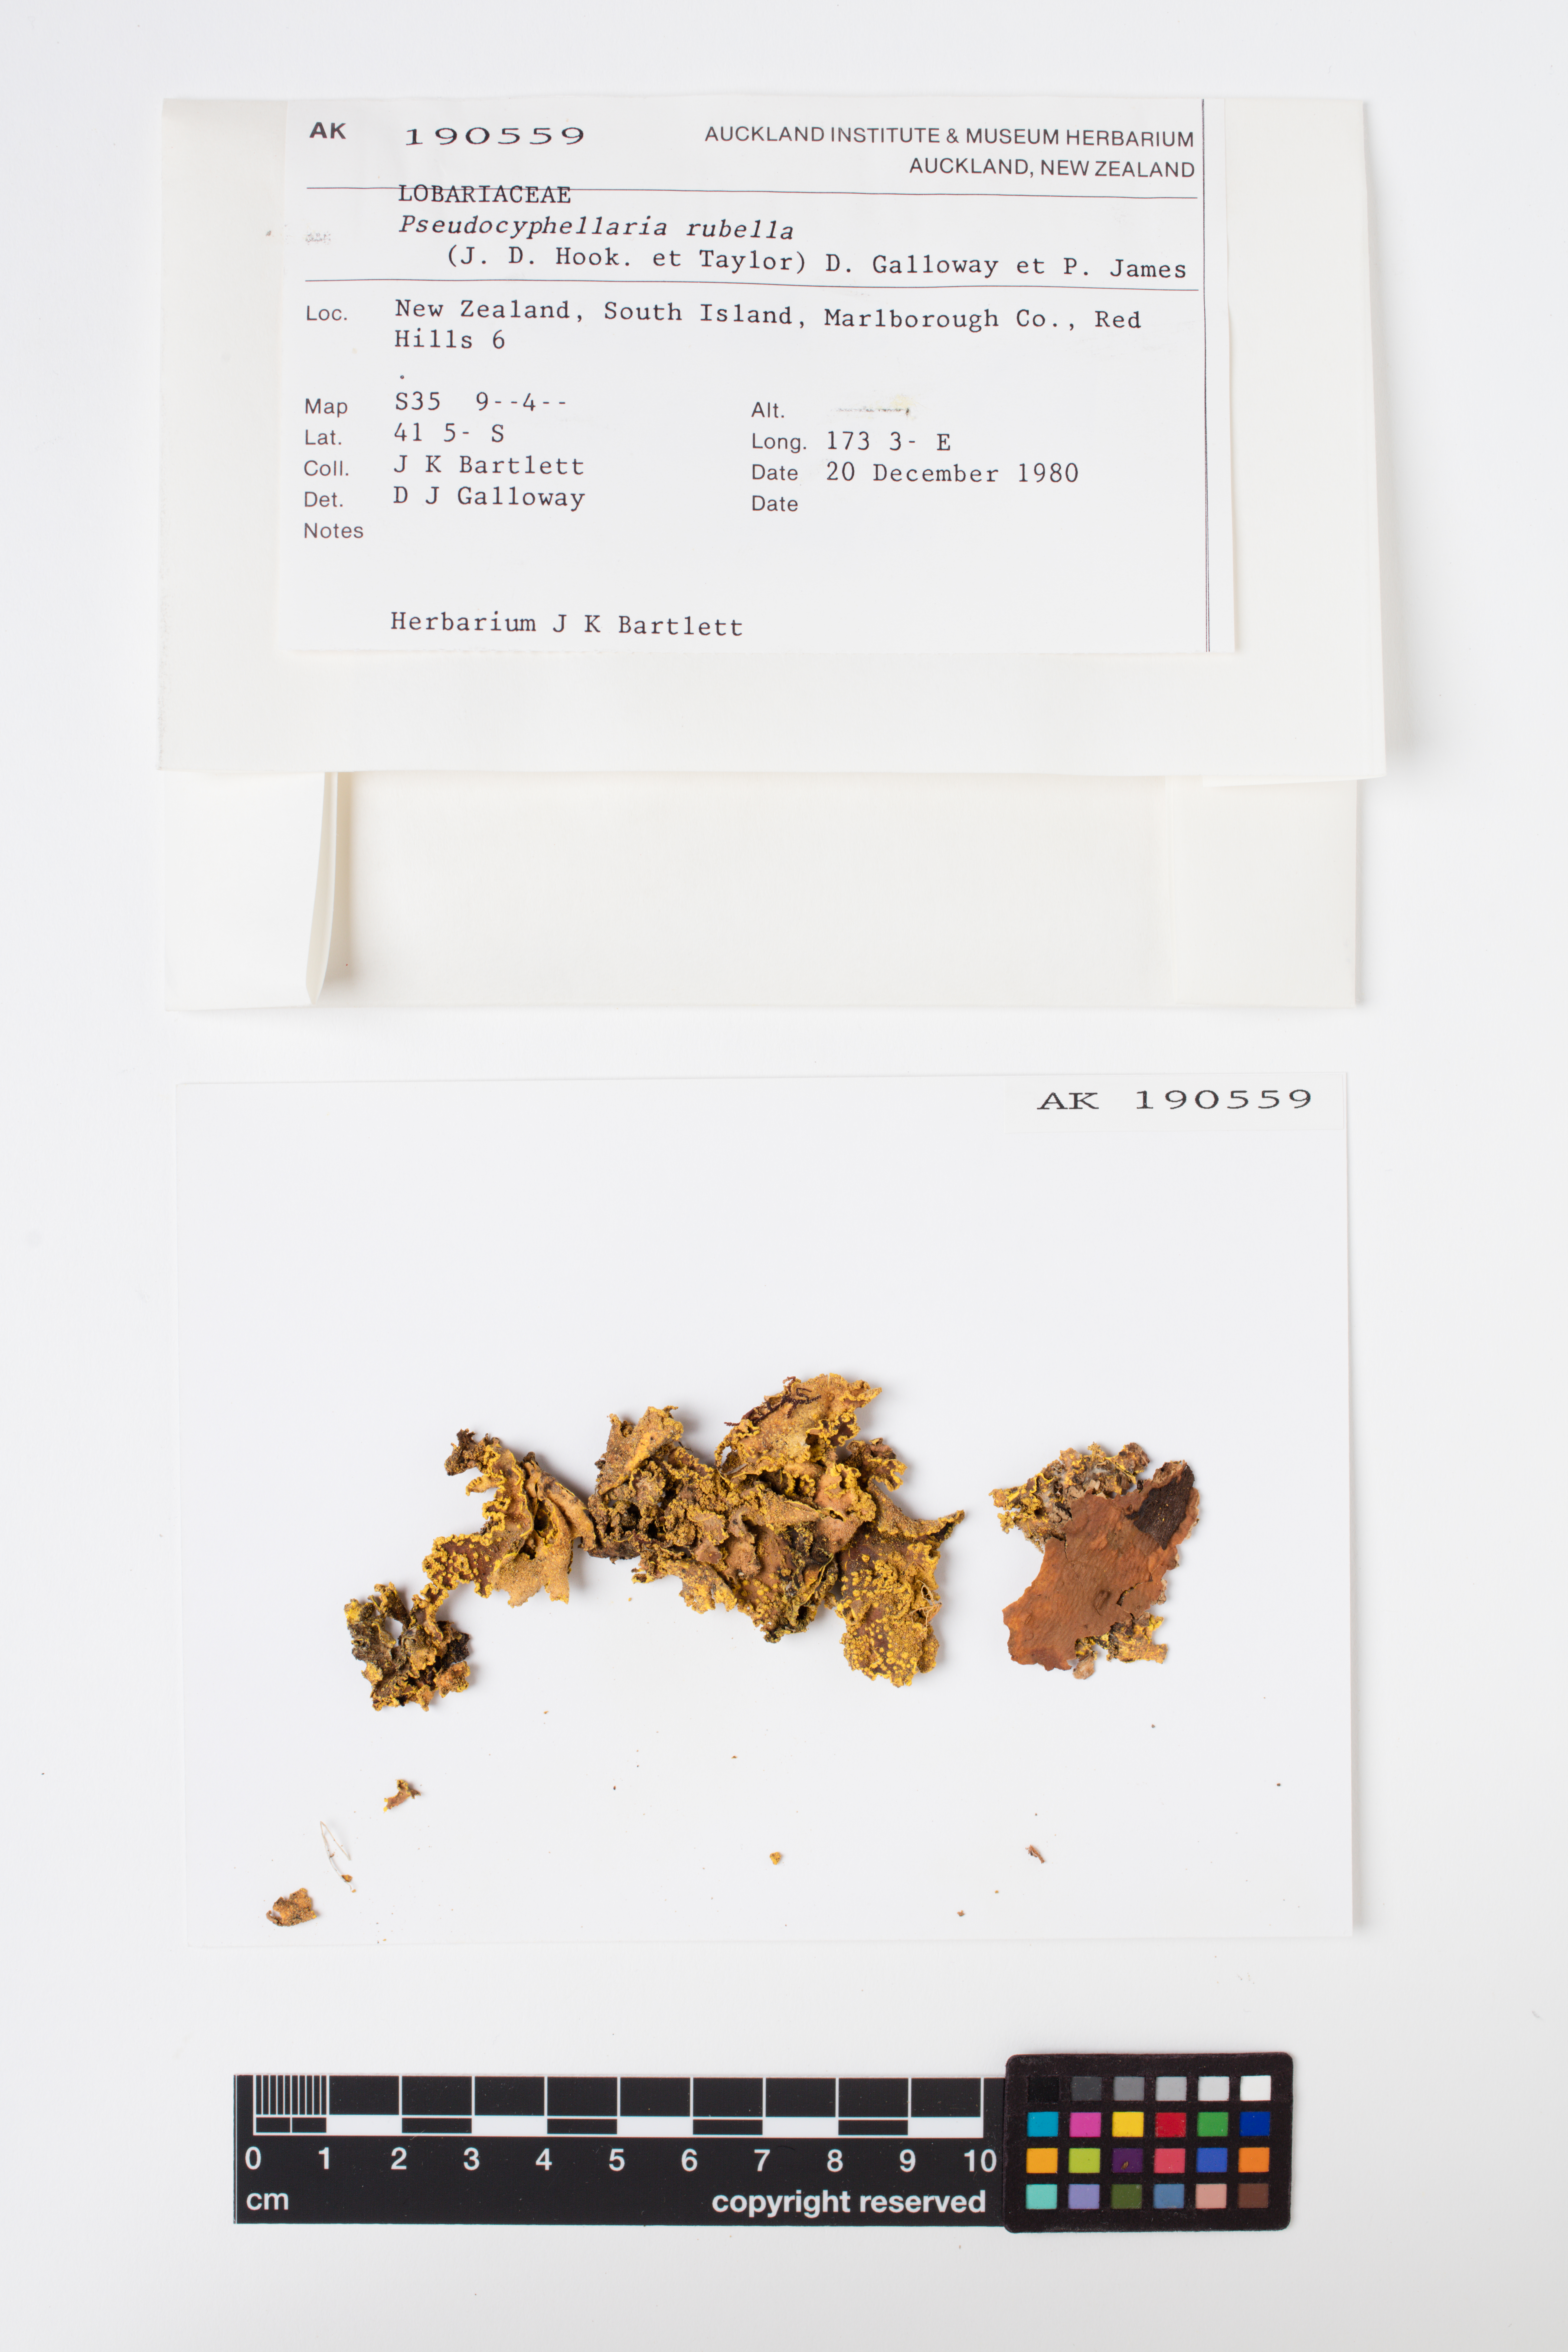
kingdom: Fungi
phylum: Ascomycota
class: Lecanoromycetes
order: Peltigerales
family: Lobariaceae
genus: Pseudocyphellaria
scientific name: Pseudocyphellaria rubella
